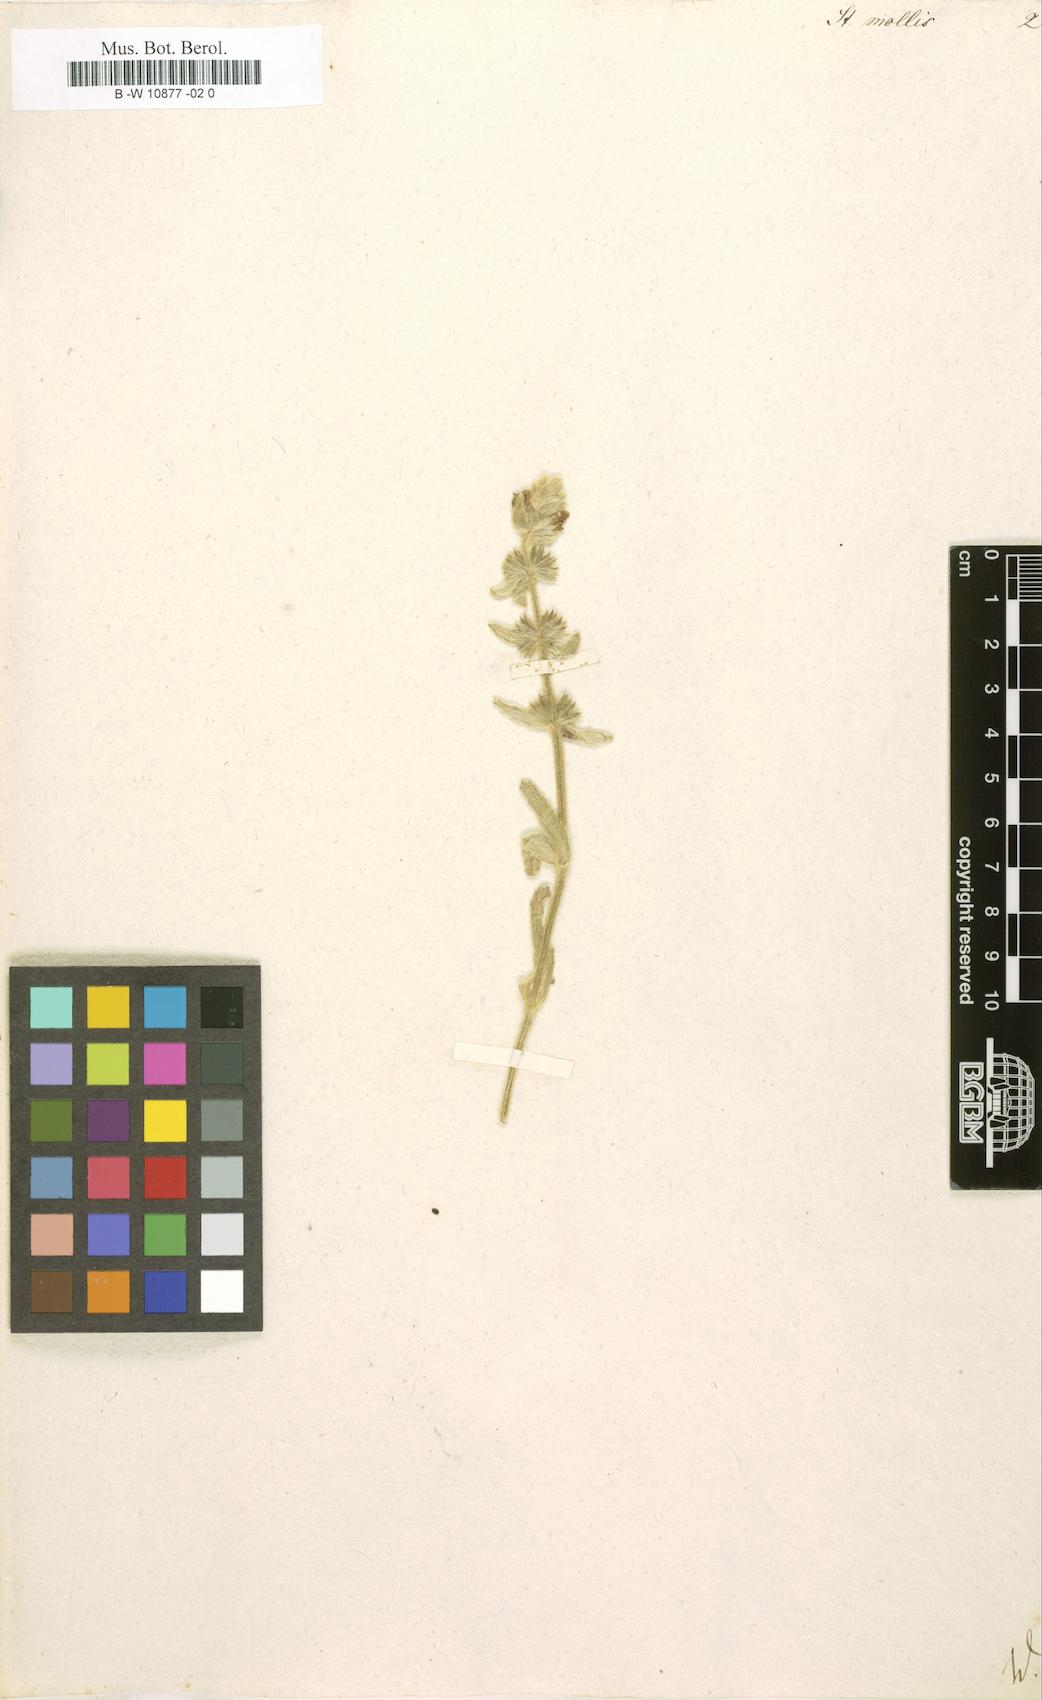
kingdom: Plantae
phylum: Tracheophyta
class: Magnoliopsida
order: Lamiales
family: Lamiaceae
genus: Stachys
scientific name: Stachys arenaria
